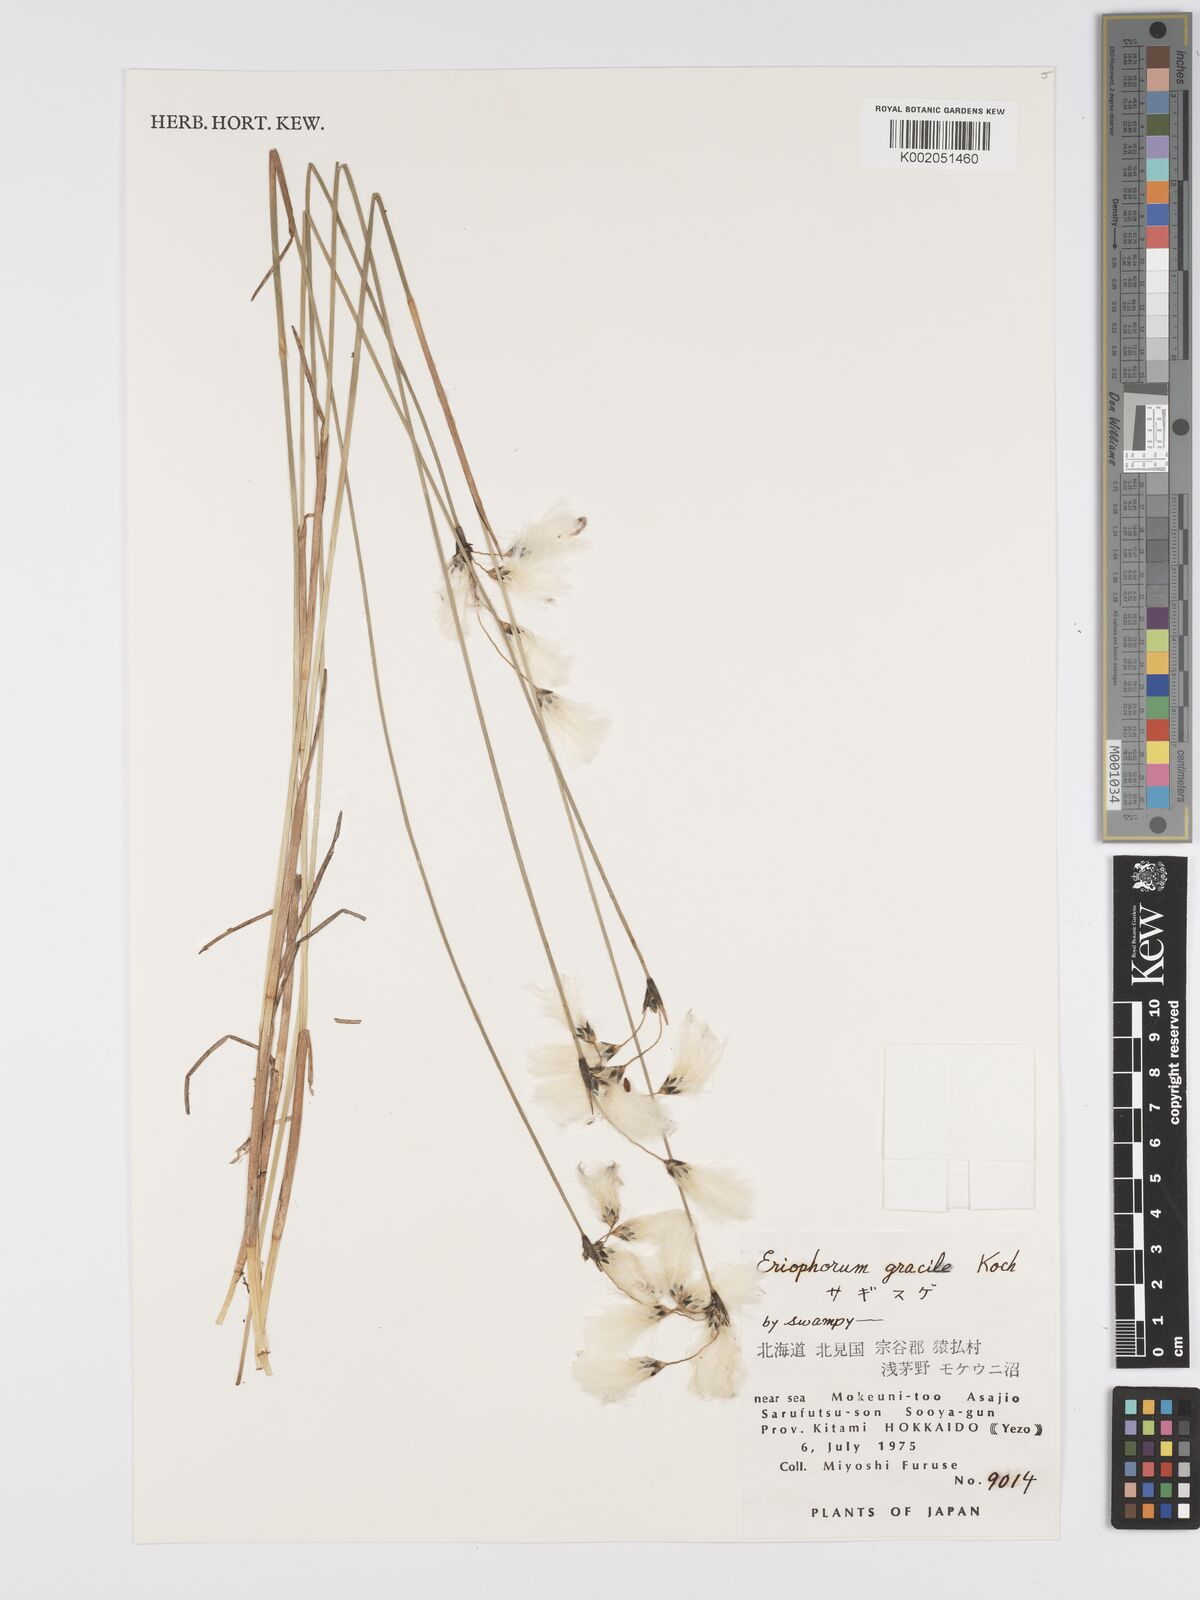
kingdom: Plantae
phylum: Tracheophyta
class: Liliopsida
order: Poales
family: Cyperaceae
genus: Eriophorum
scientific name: Eriophorum gracile
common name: Slender cottongrass
